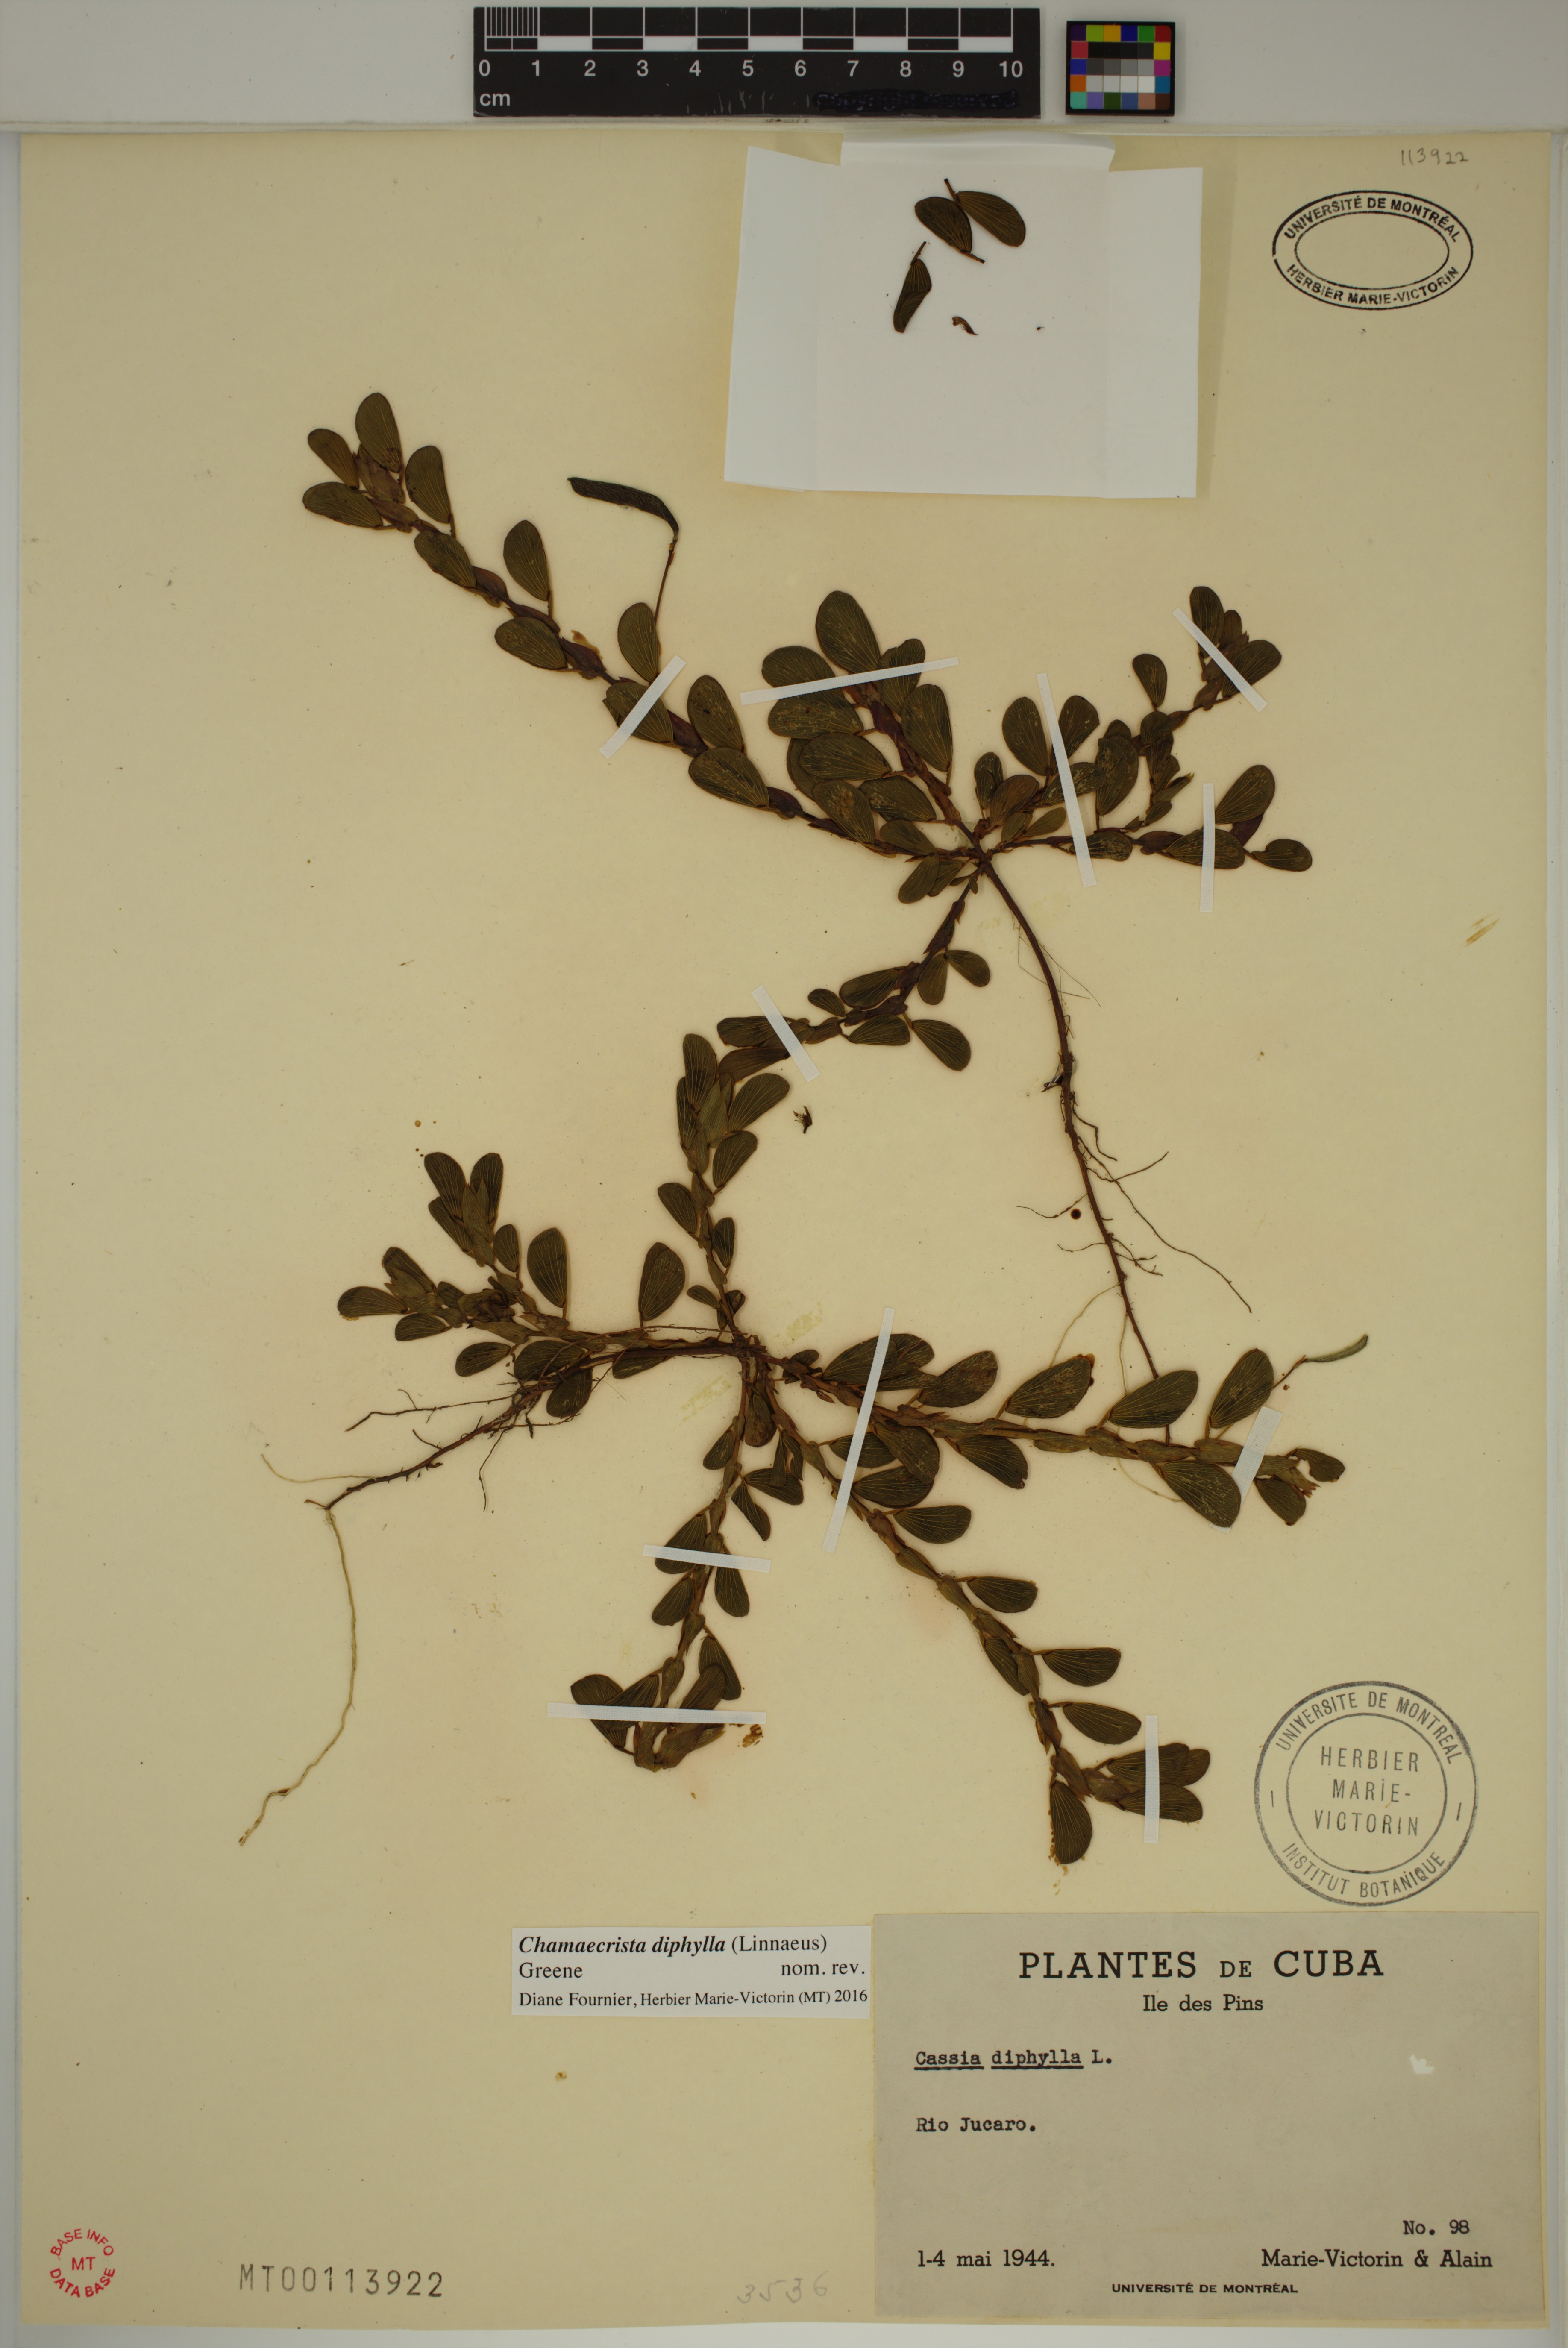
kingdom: Plantae
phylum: Tracheophyta
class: Magnoliopsida
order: Fabales
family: Fabaceae
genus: Chamaecrista
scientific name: Chamaecrista diphylla
